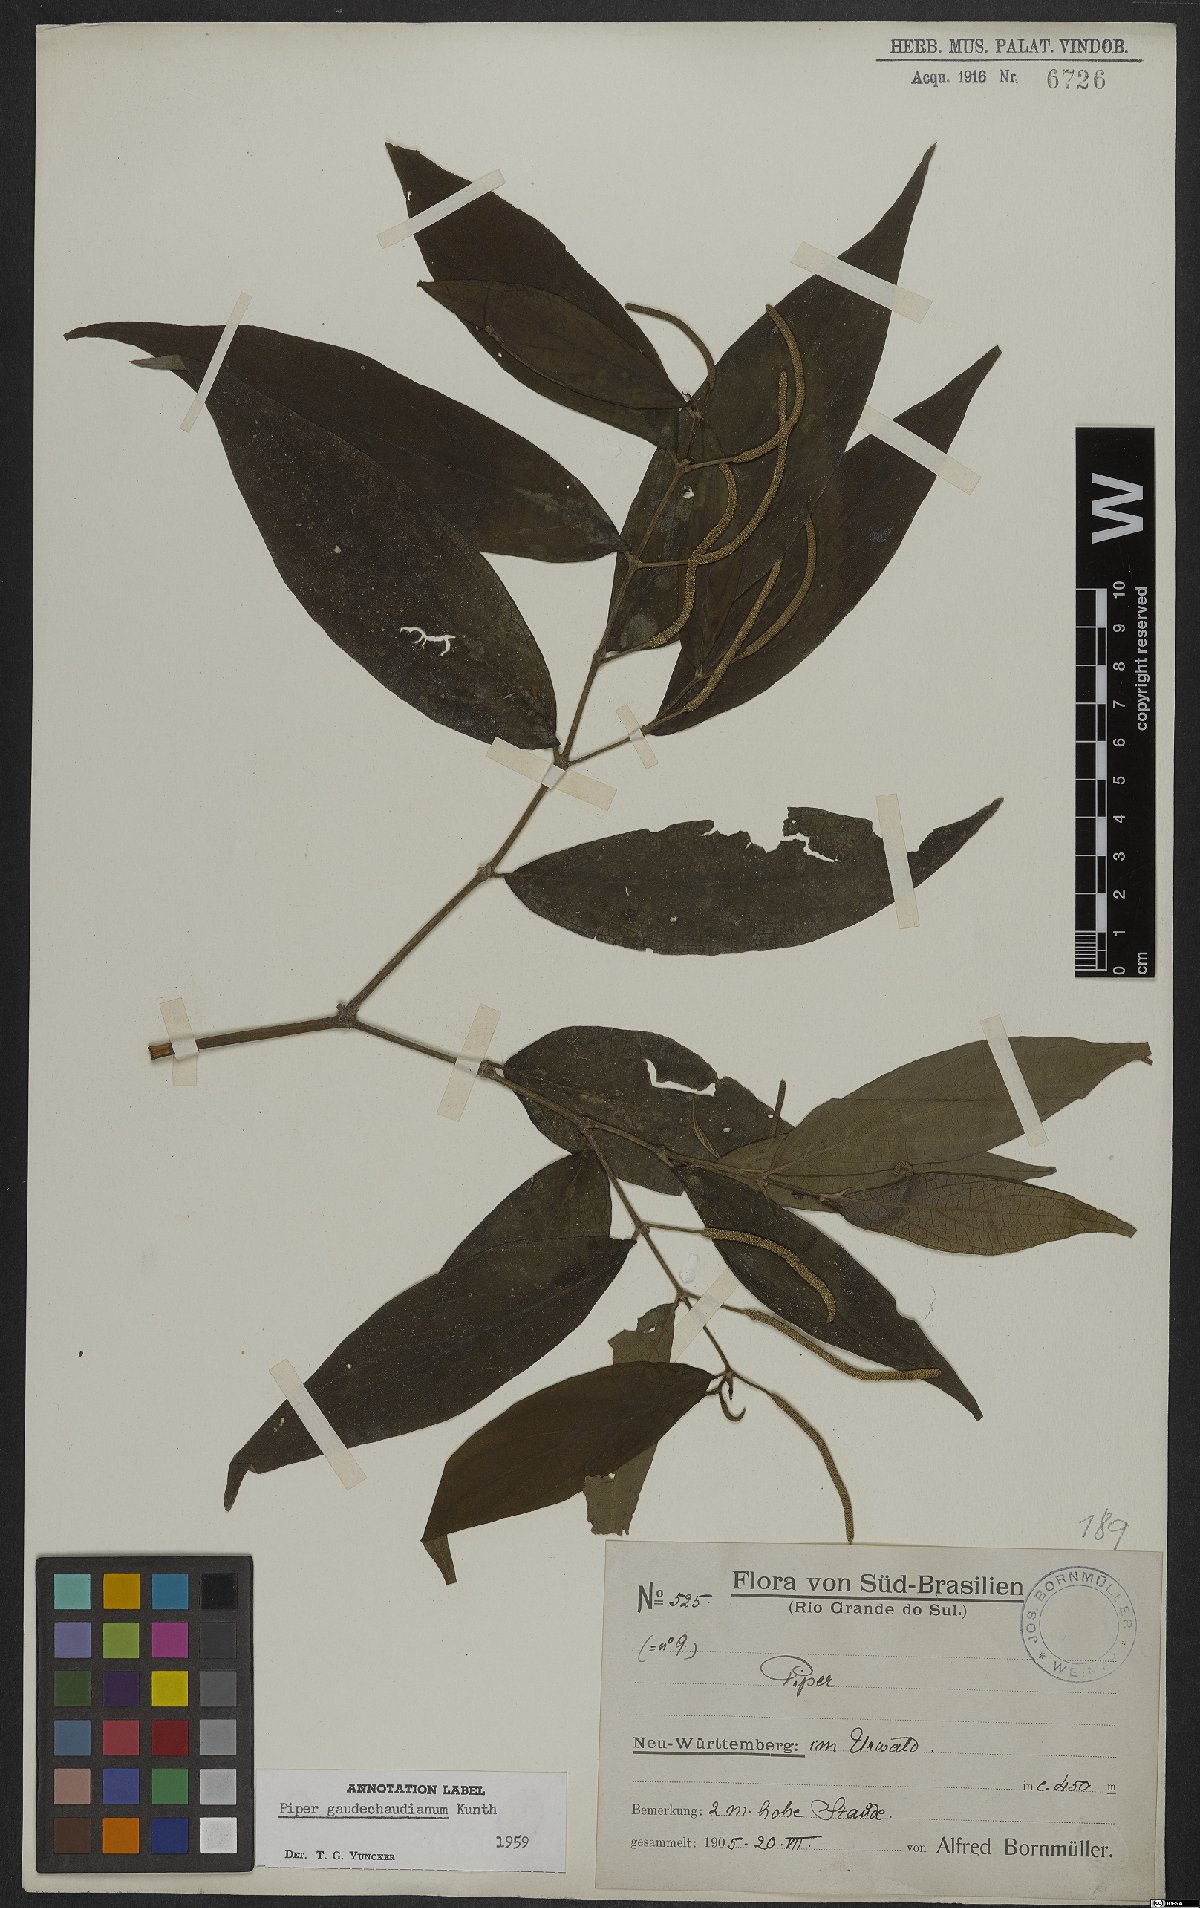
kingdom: Plantae
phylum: Tracheophyta
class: Magnoliopsida
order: Piperales
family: Piperaceae
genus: Piper
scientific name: Piper gaudichaudianum
